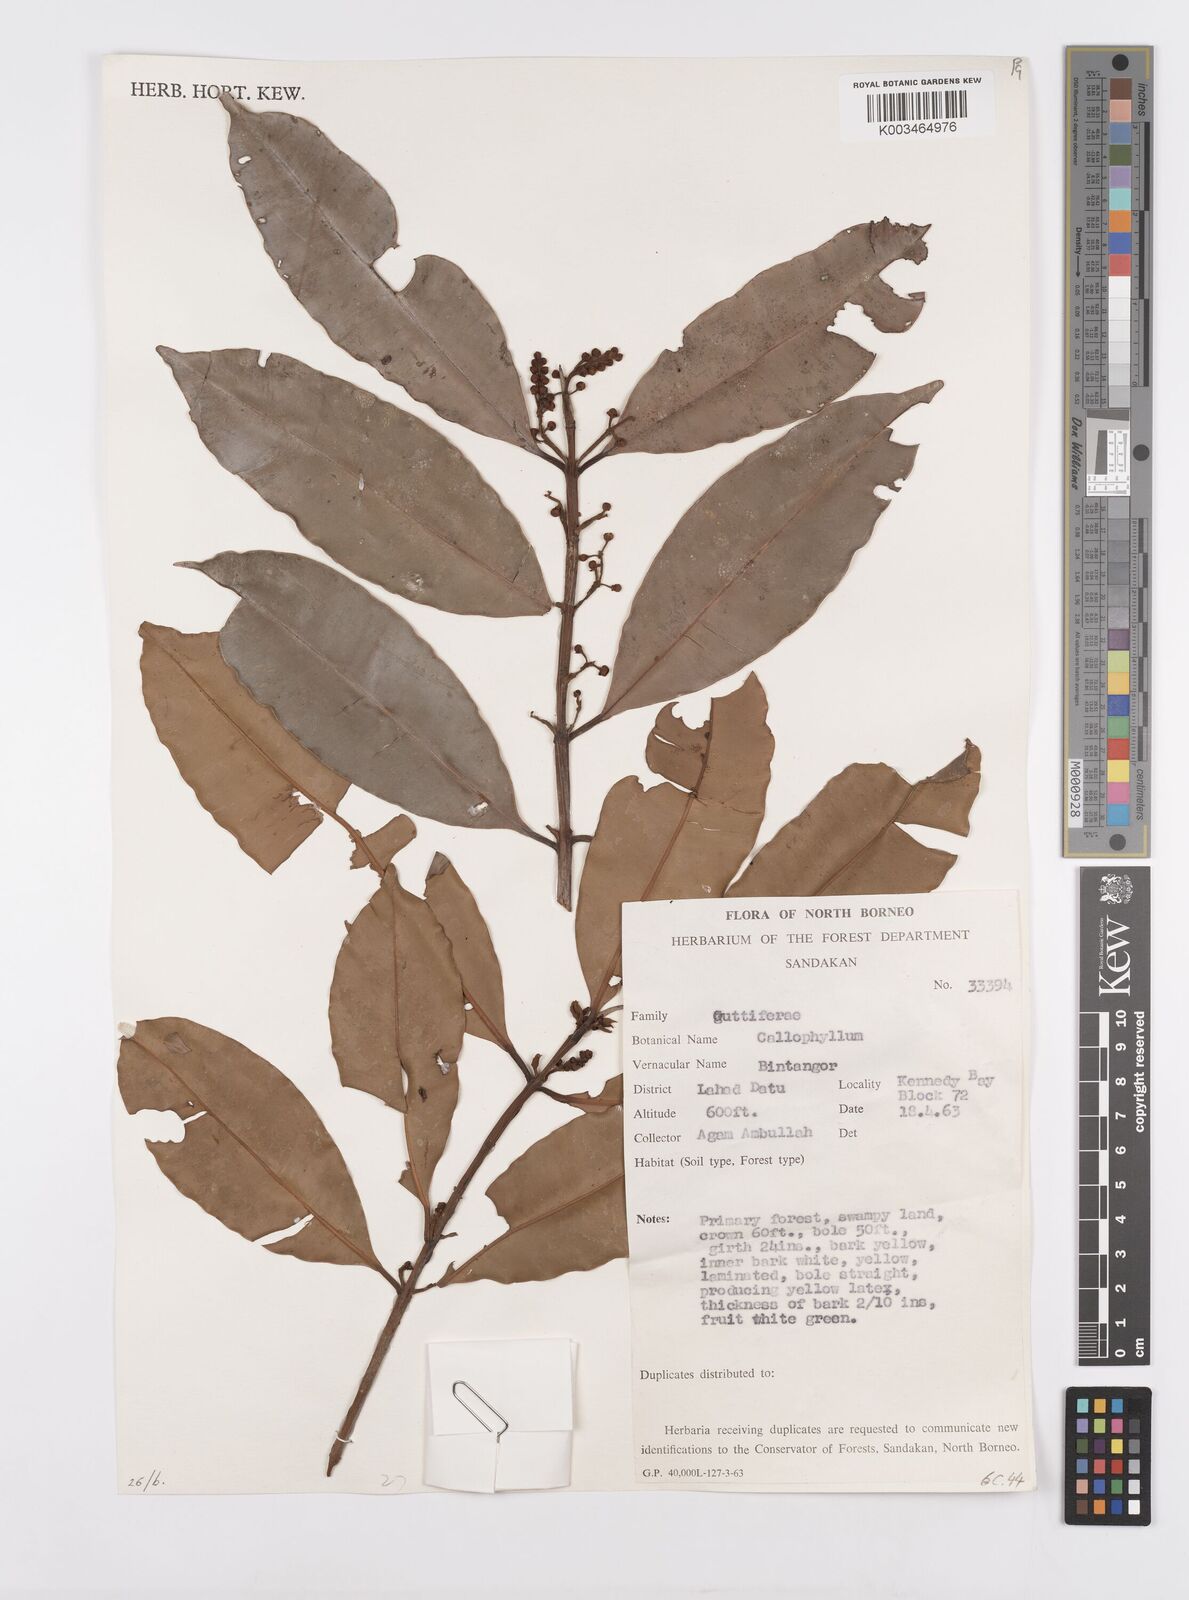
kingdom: Plantae
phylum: Tracheophyta
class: Magnoliopsida
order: Malpighiales
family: Calophyllaceae
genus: Calophyllum
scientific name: Calophyllum blancoi
